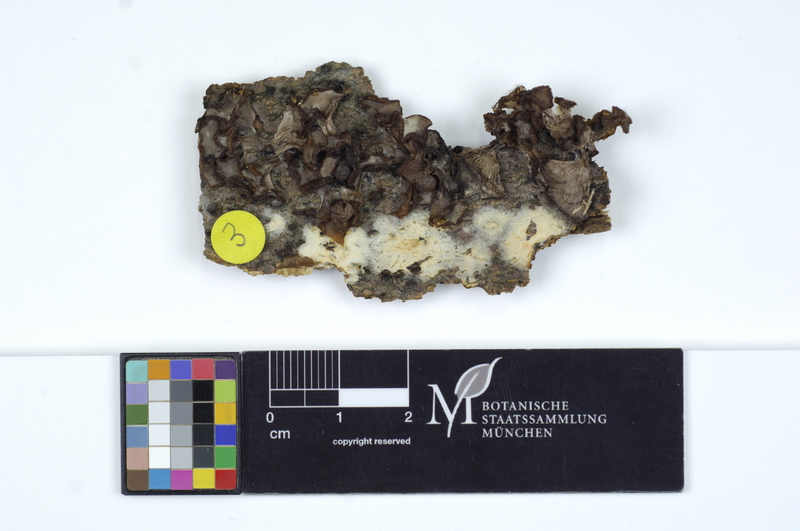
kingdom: Fungi
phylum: Basidiomycota
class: Agaricomycetes
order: Polyporales
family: Hyphodermataceae
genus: Mutatoderma
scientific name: Mutatoderma mutatum
